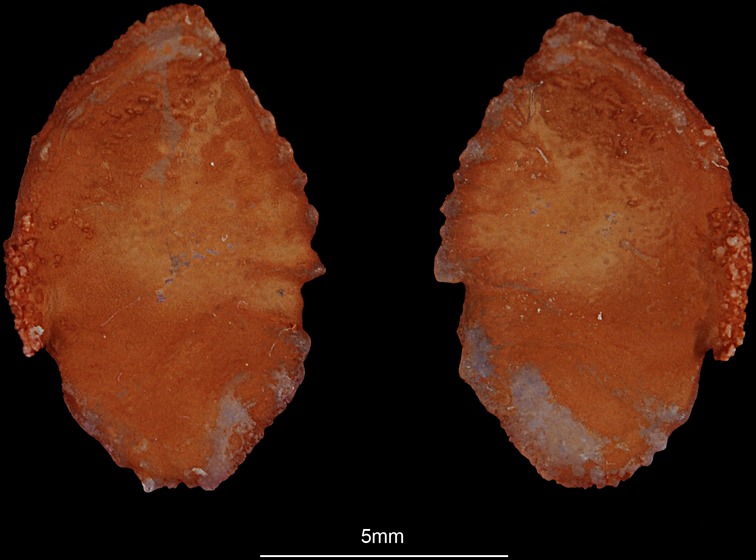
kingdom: Animalia
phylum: Chordata
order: Perciformes
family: Channidae
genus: Channa
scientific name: Channa micropeltes
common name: Giant snakehead
